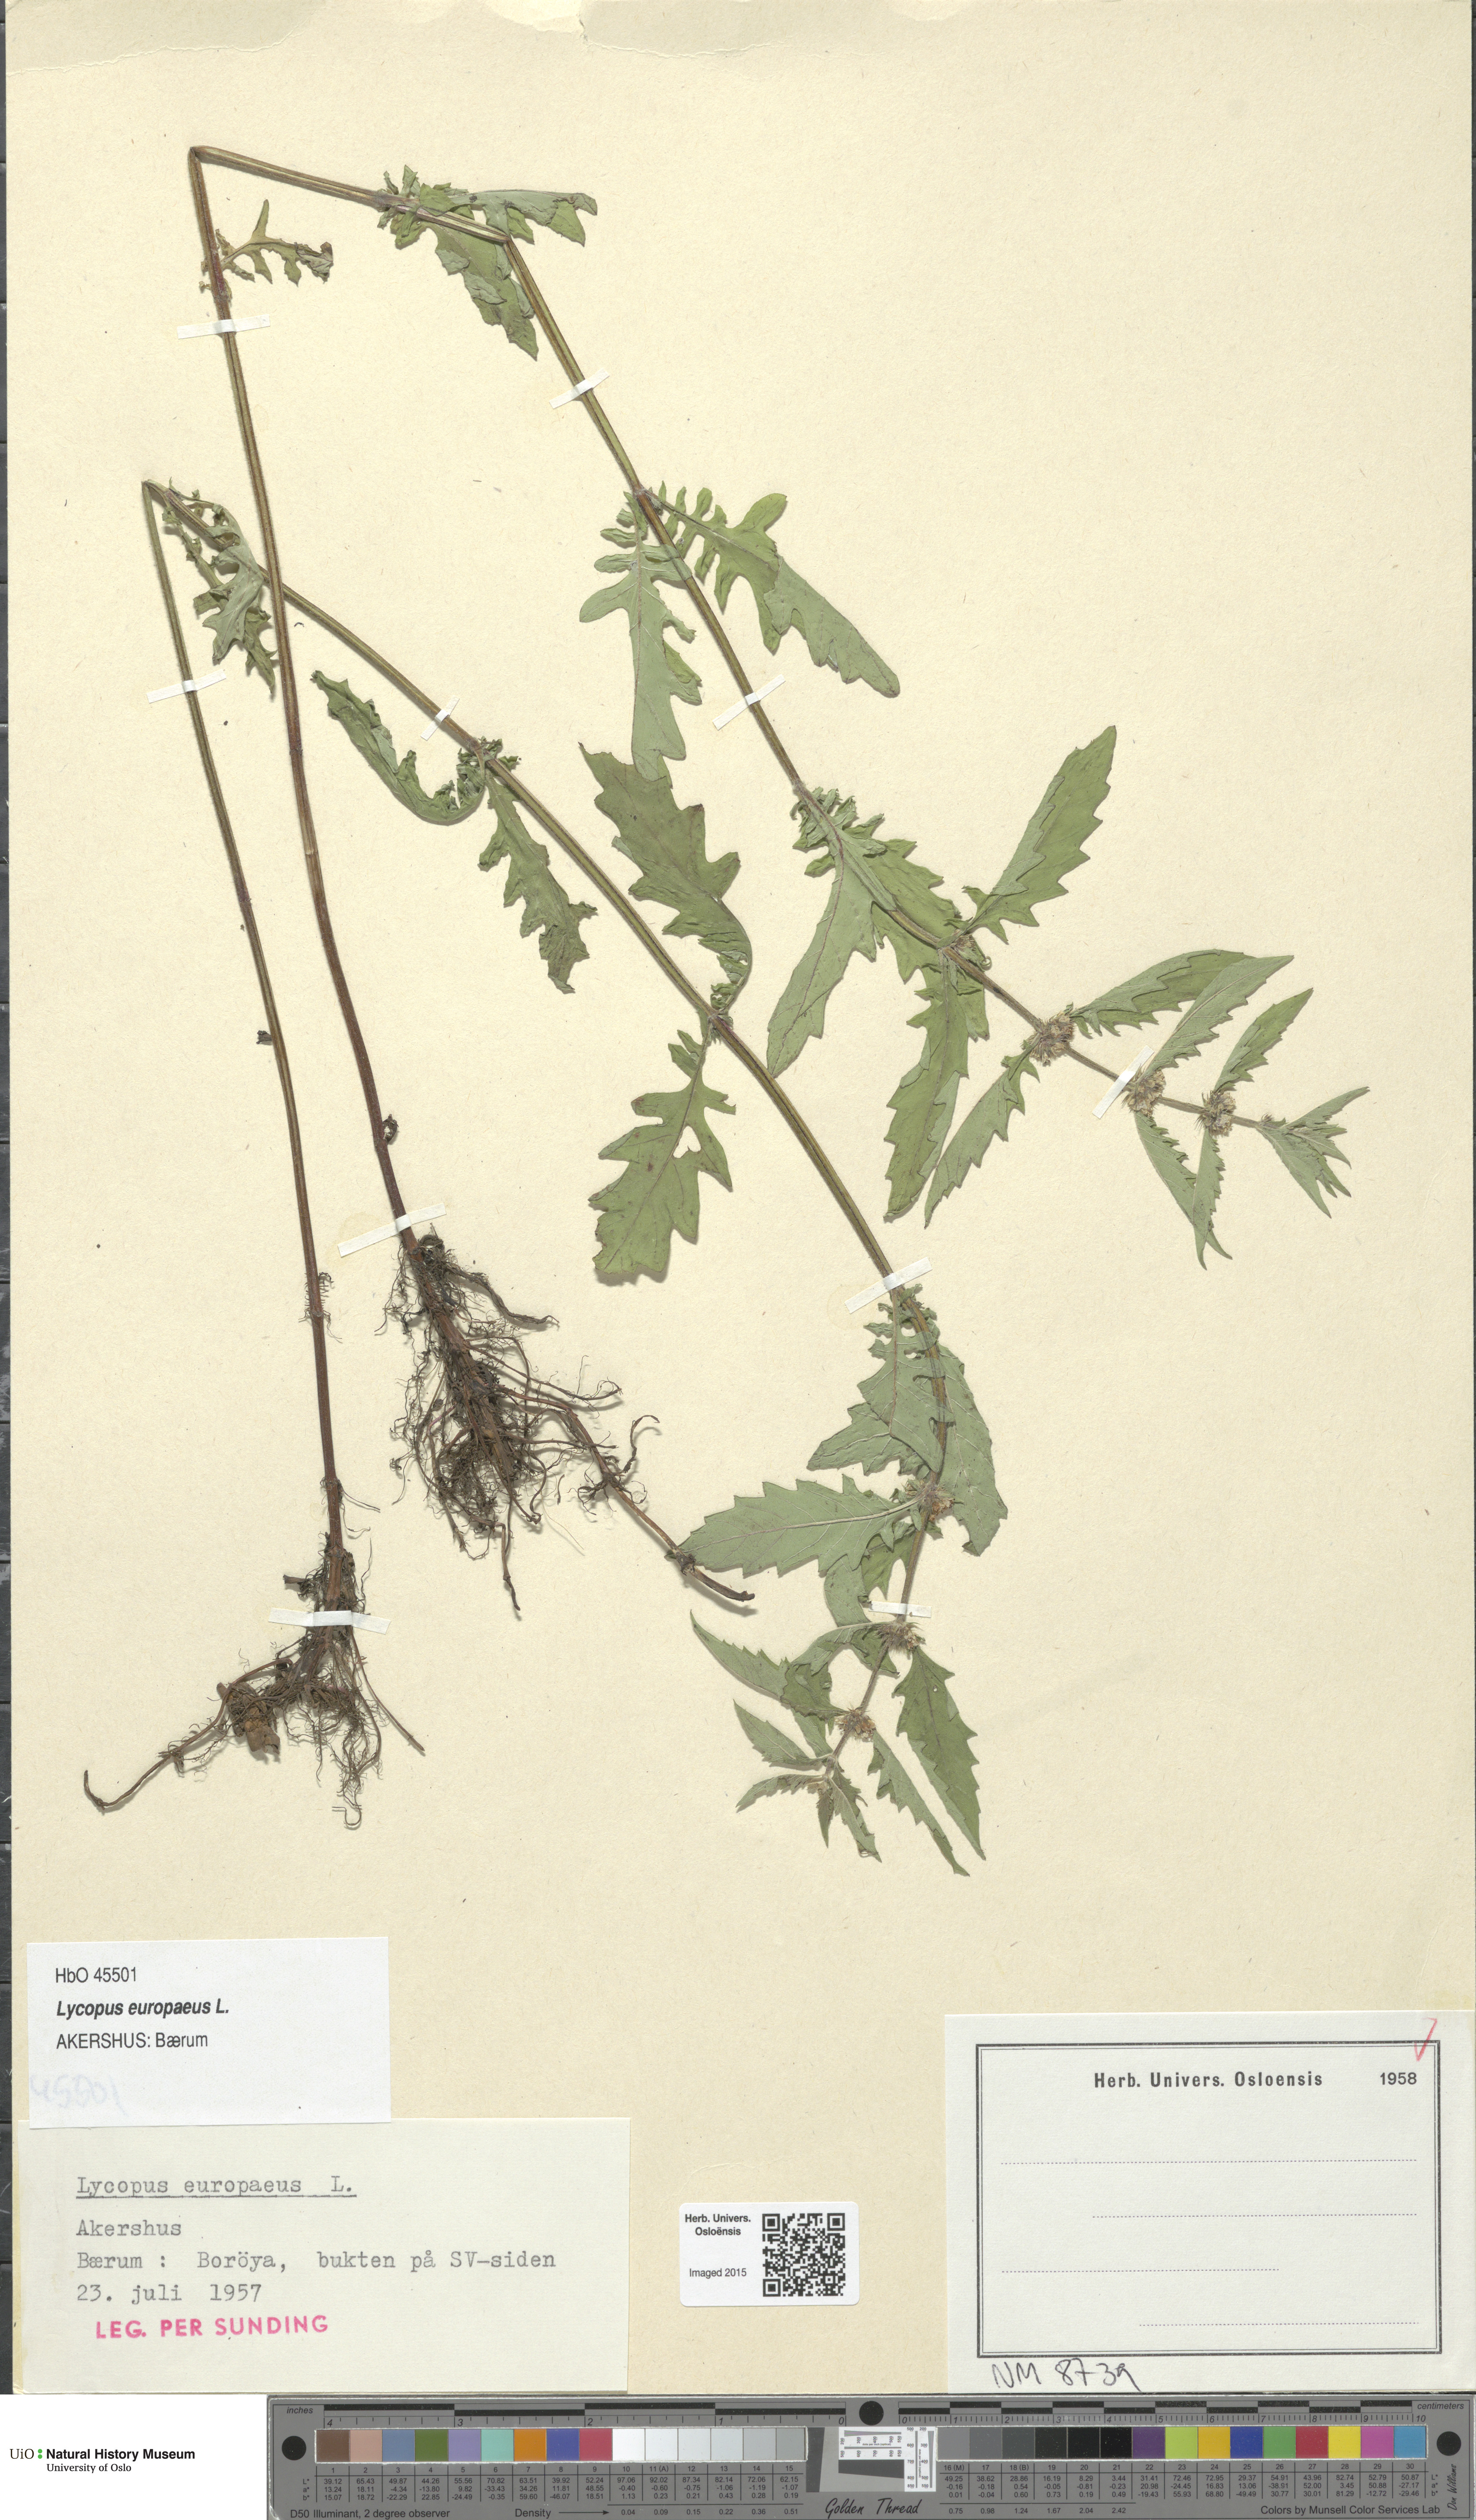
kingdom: Plantae
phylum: Tracheophyta
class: Magnoliopsida
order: Lamiales
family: Lamiaceae
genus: Lycopus
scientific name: Lycopus europaeus
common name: European bugleweed
